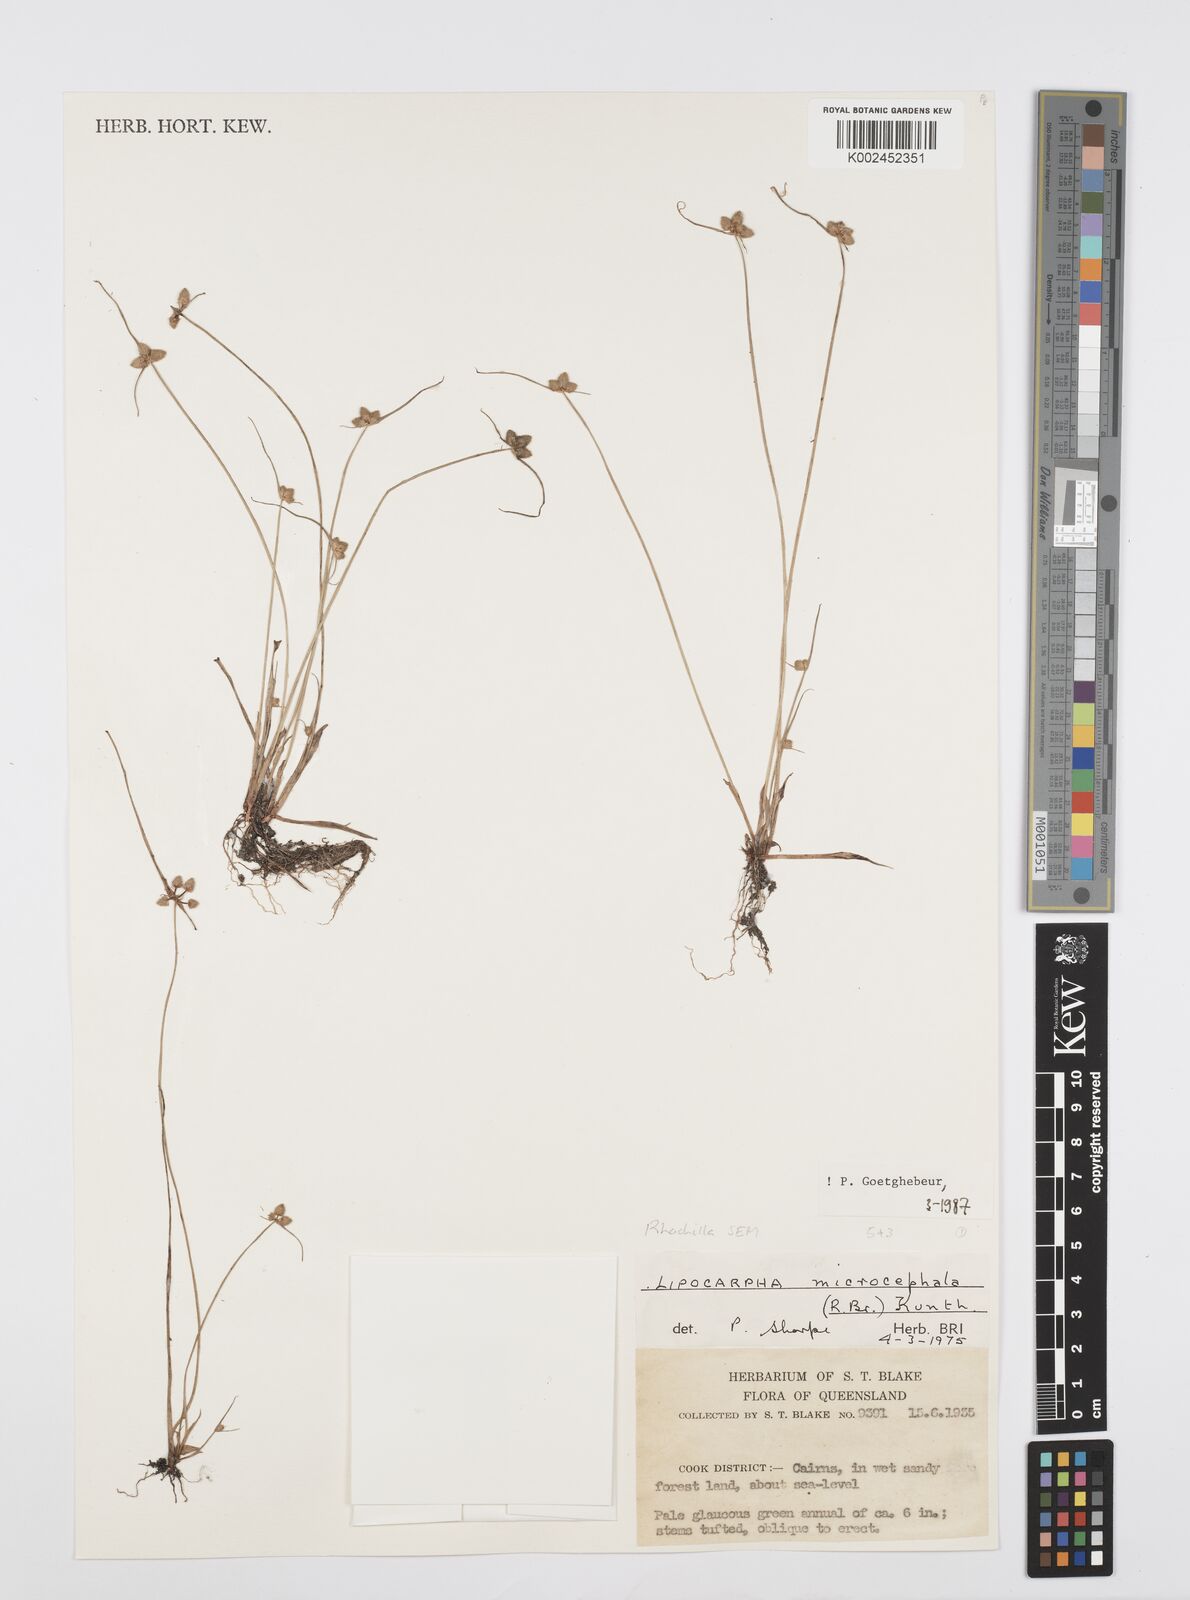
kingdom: Plantae
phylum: Tracheophyta
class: Liliopsida
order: Poales
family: Cyperaceae
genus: Cyperus
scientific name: Cyperus microcephalus
